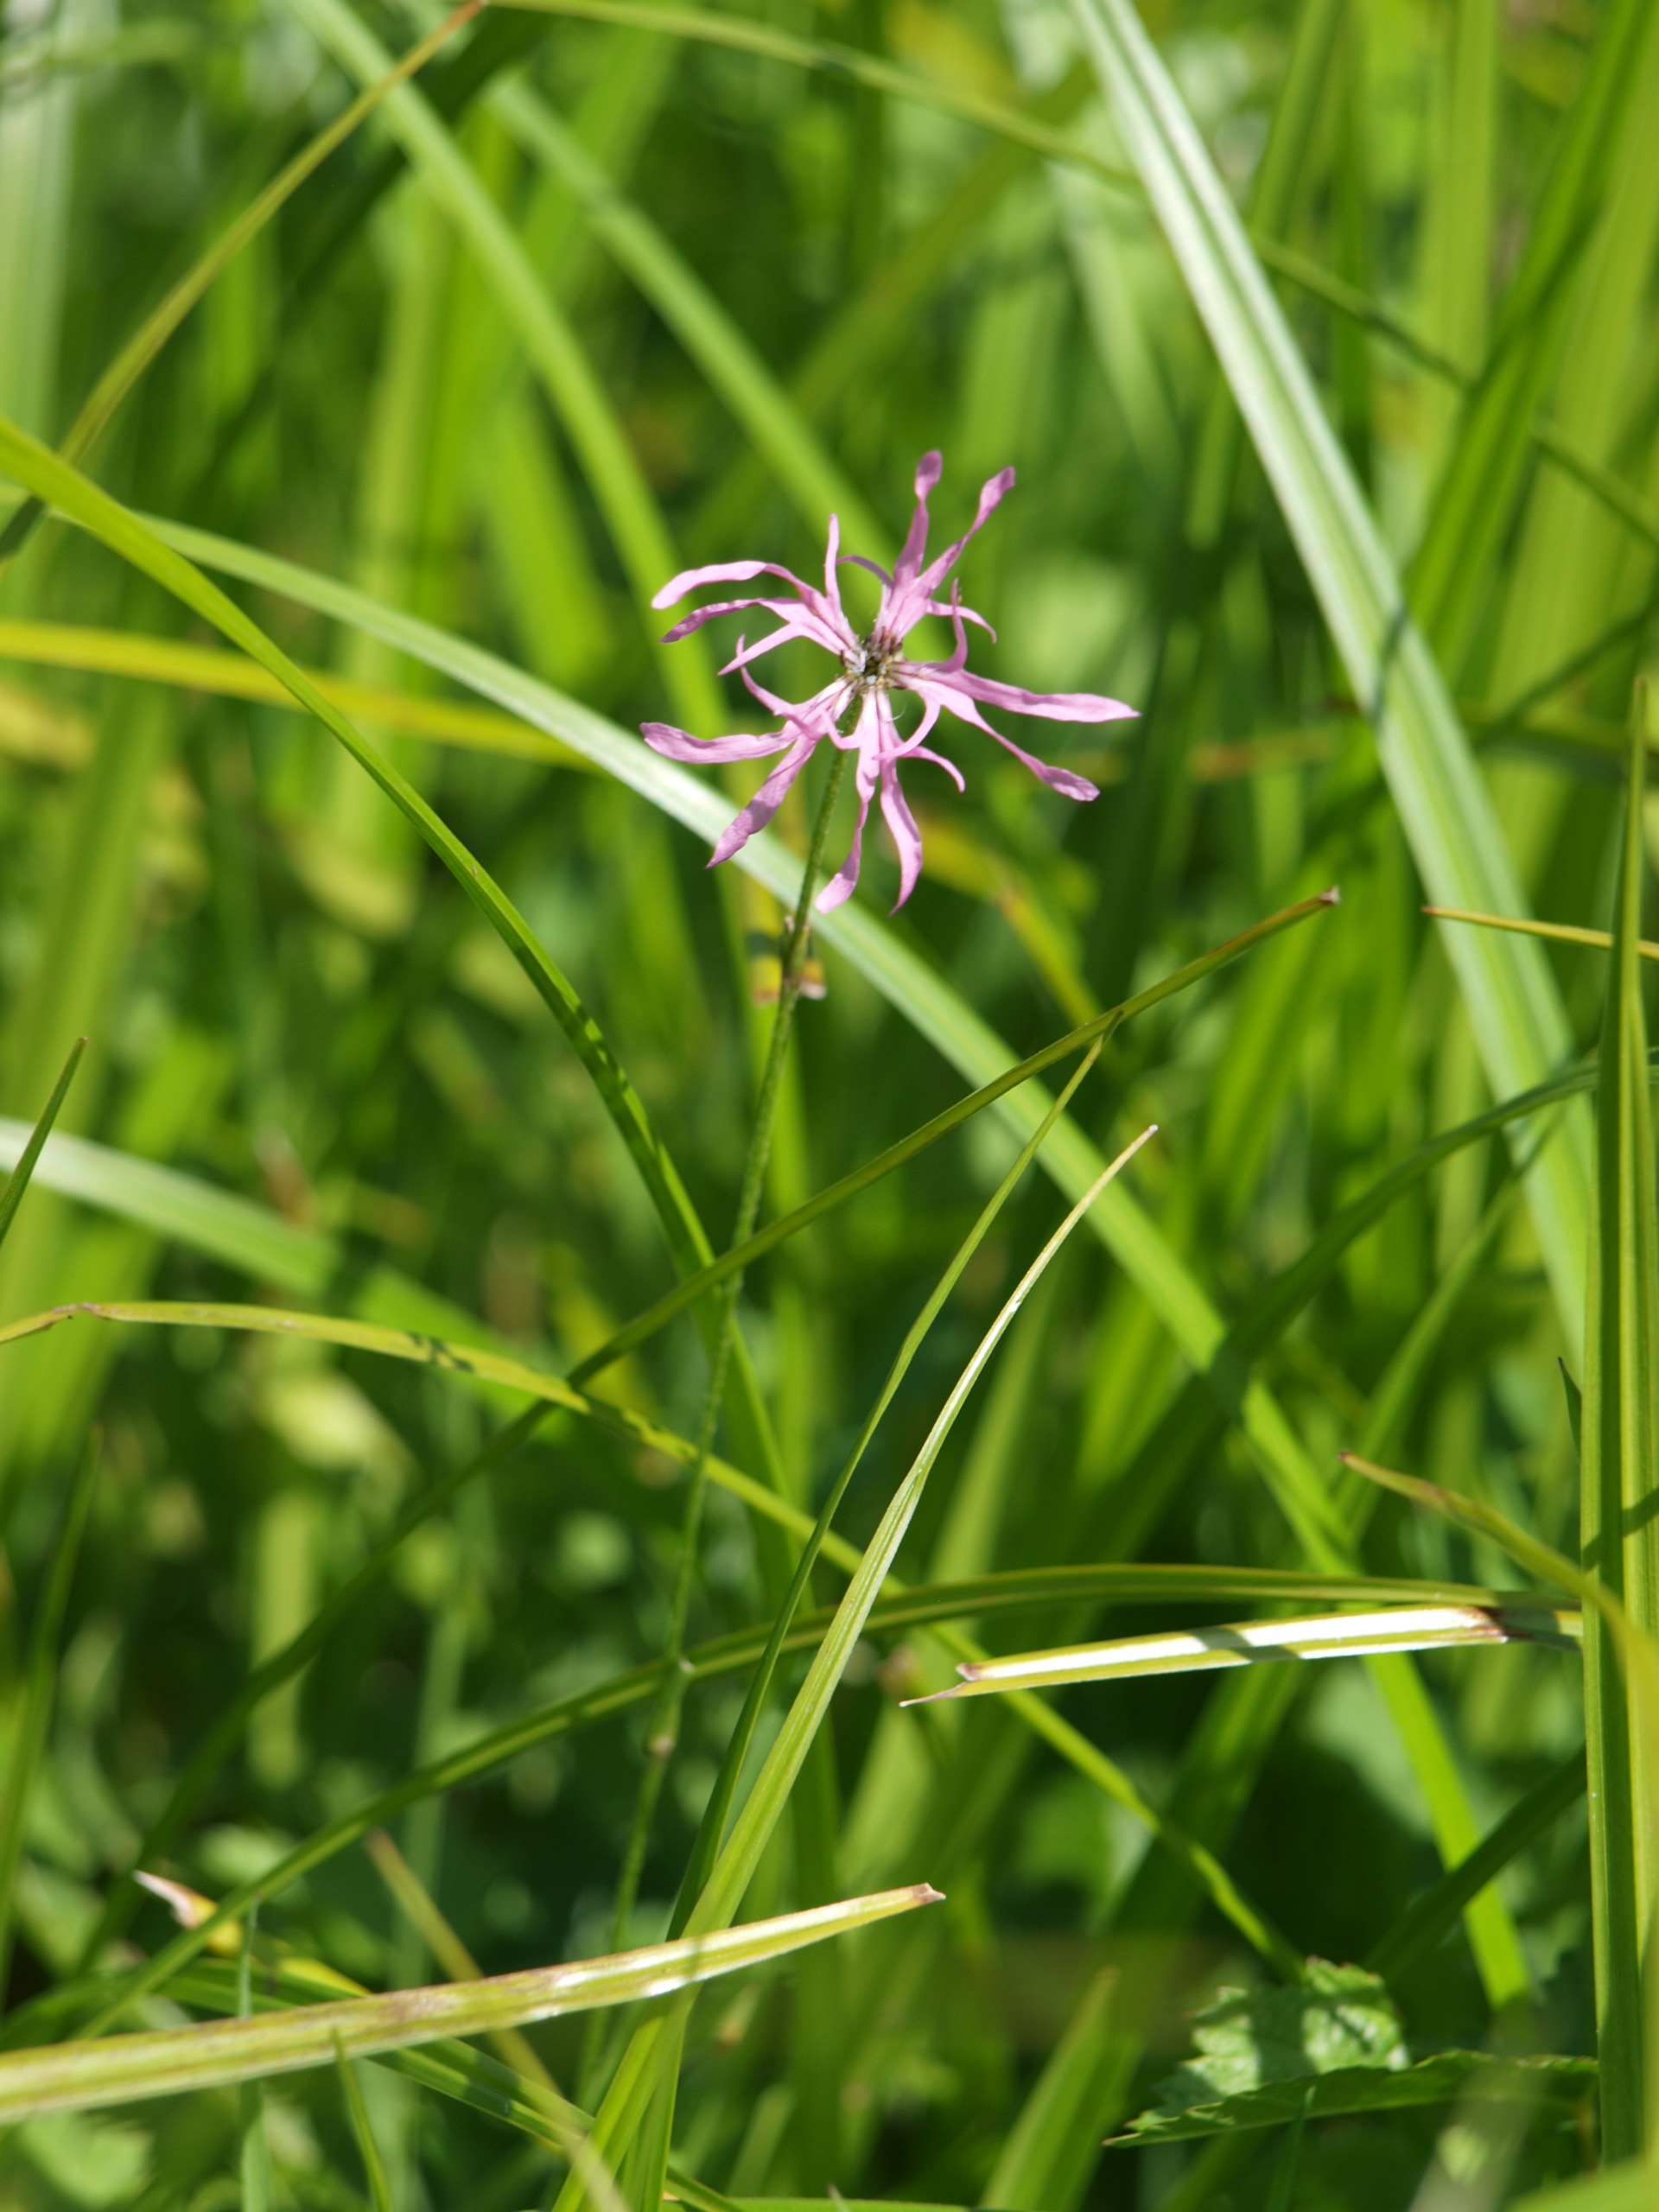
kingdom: Plantae
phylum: Tracheophyta
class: Magnoliopsida
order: Caryophyllales
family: Caryophyllaceae
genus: Silene
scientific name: Silene flos-cuculi
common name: Trævlekrone
